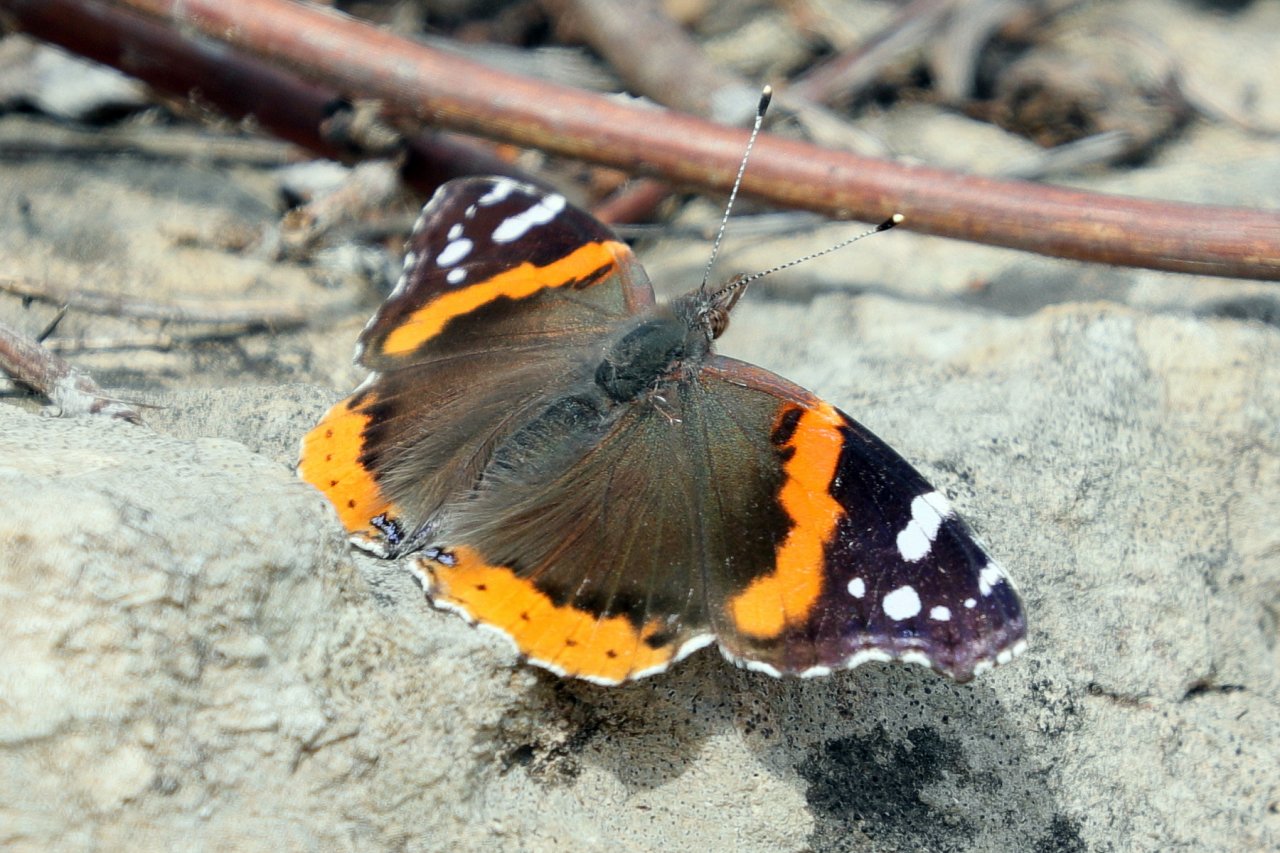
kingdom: Animalia
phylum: Arthropoda
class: Insecta
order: Lepidoptera
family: Nymphalidae
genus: Vanessa
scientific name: Vanessa atalanta
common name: Red Admiral
